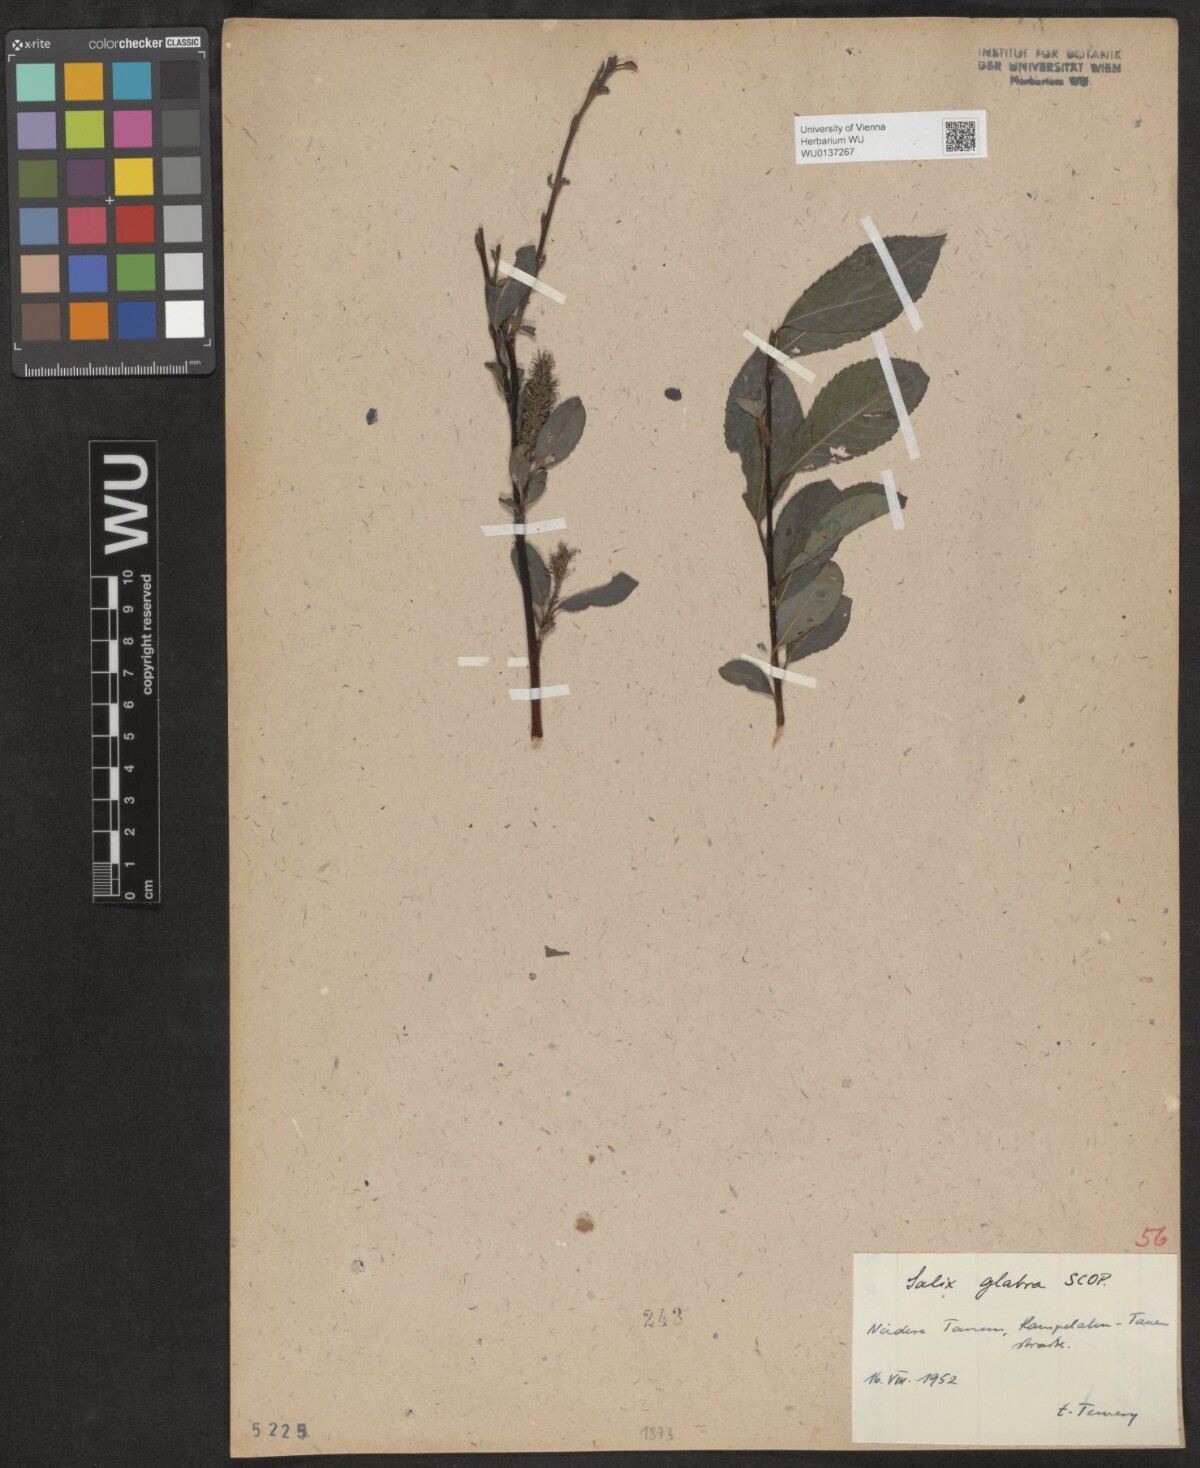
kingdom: Plantae
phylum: Tracheophyta
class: Magnoliopsida
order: Malpighiales
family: Salicaceae
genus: Salix
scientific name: Salix glabra
